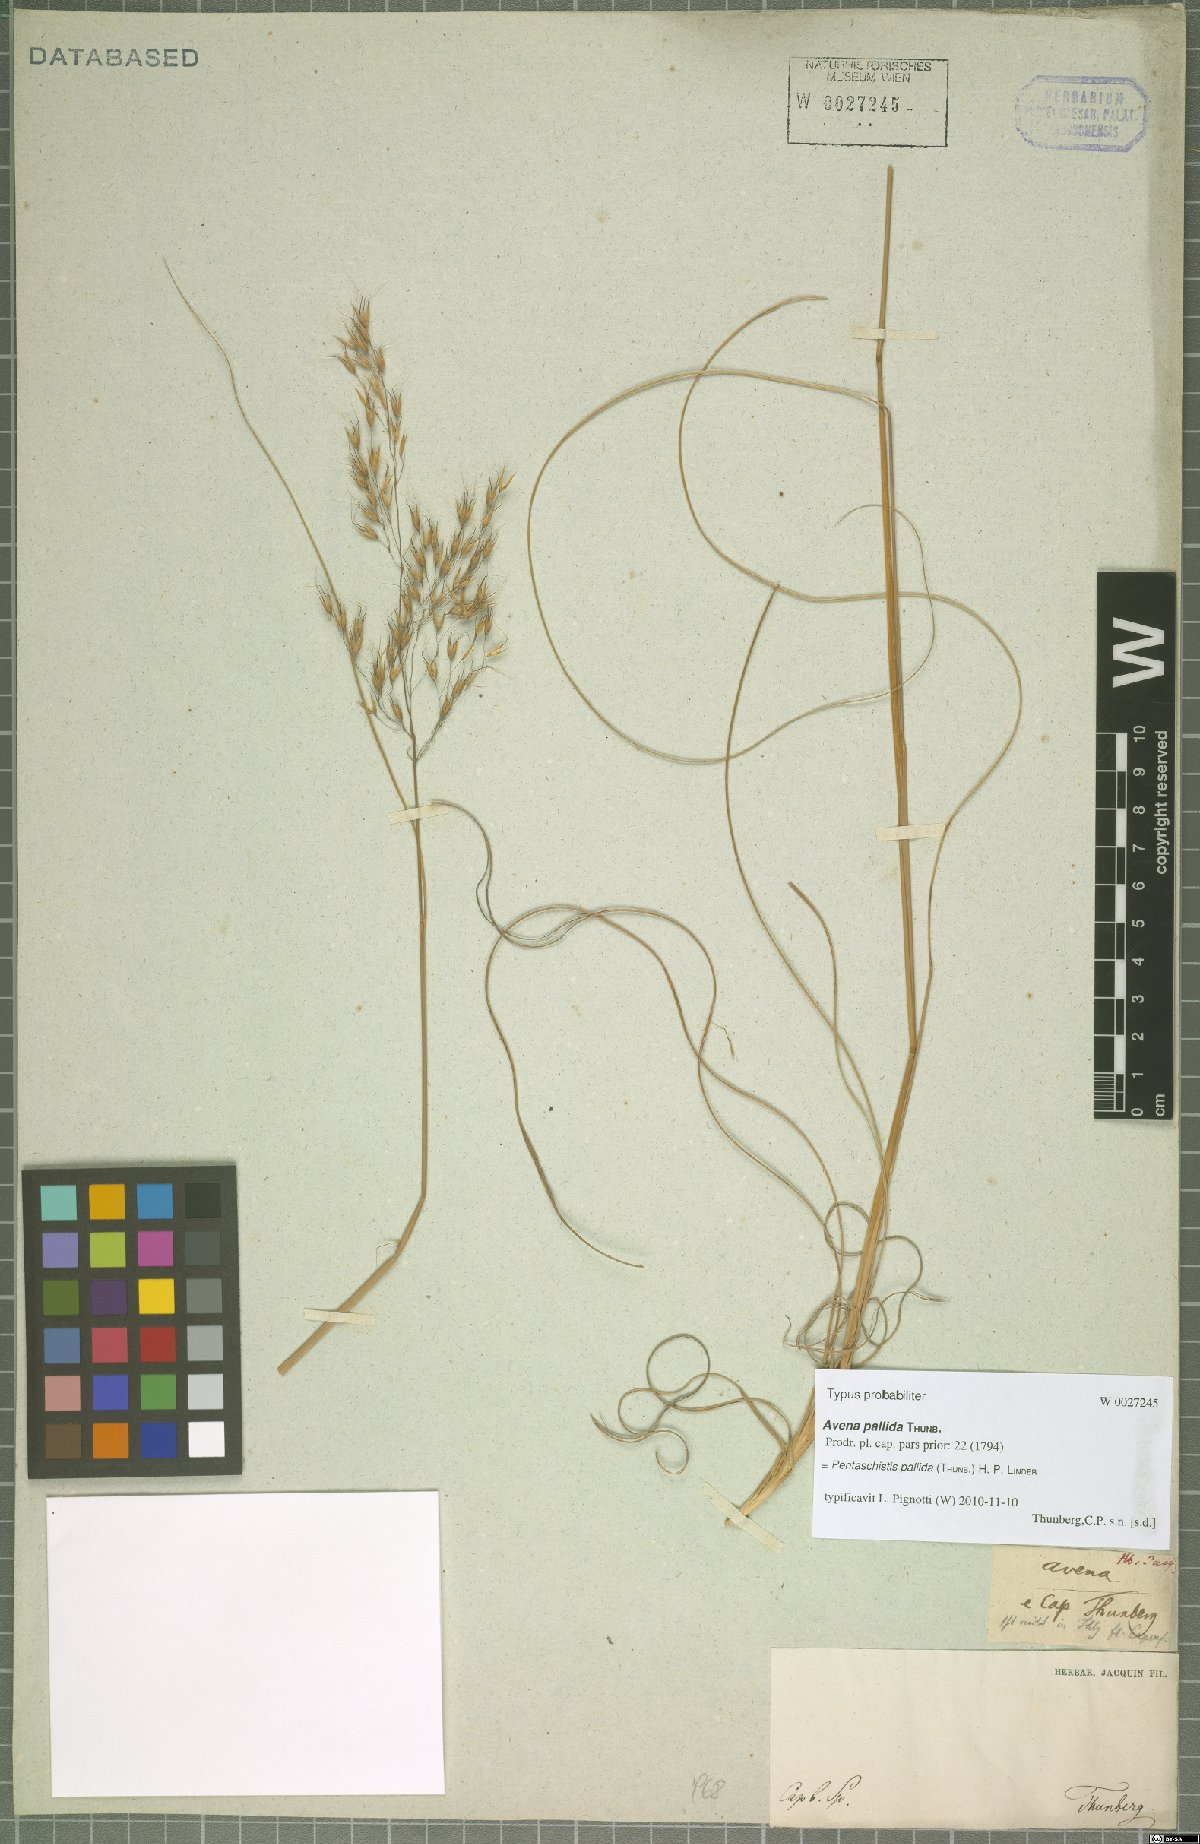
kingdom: Plantae
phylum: Tracheophyta
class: Liliopsida
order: Poales
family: Poaceae
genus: Pentameris
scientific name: Pentameris pallida
